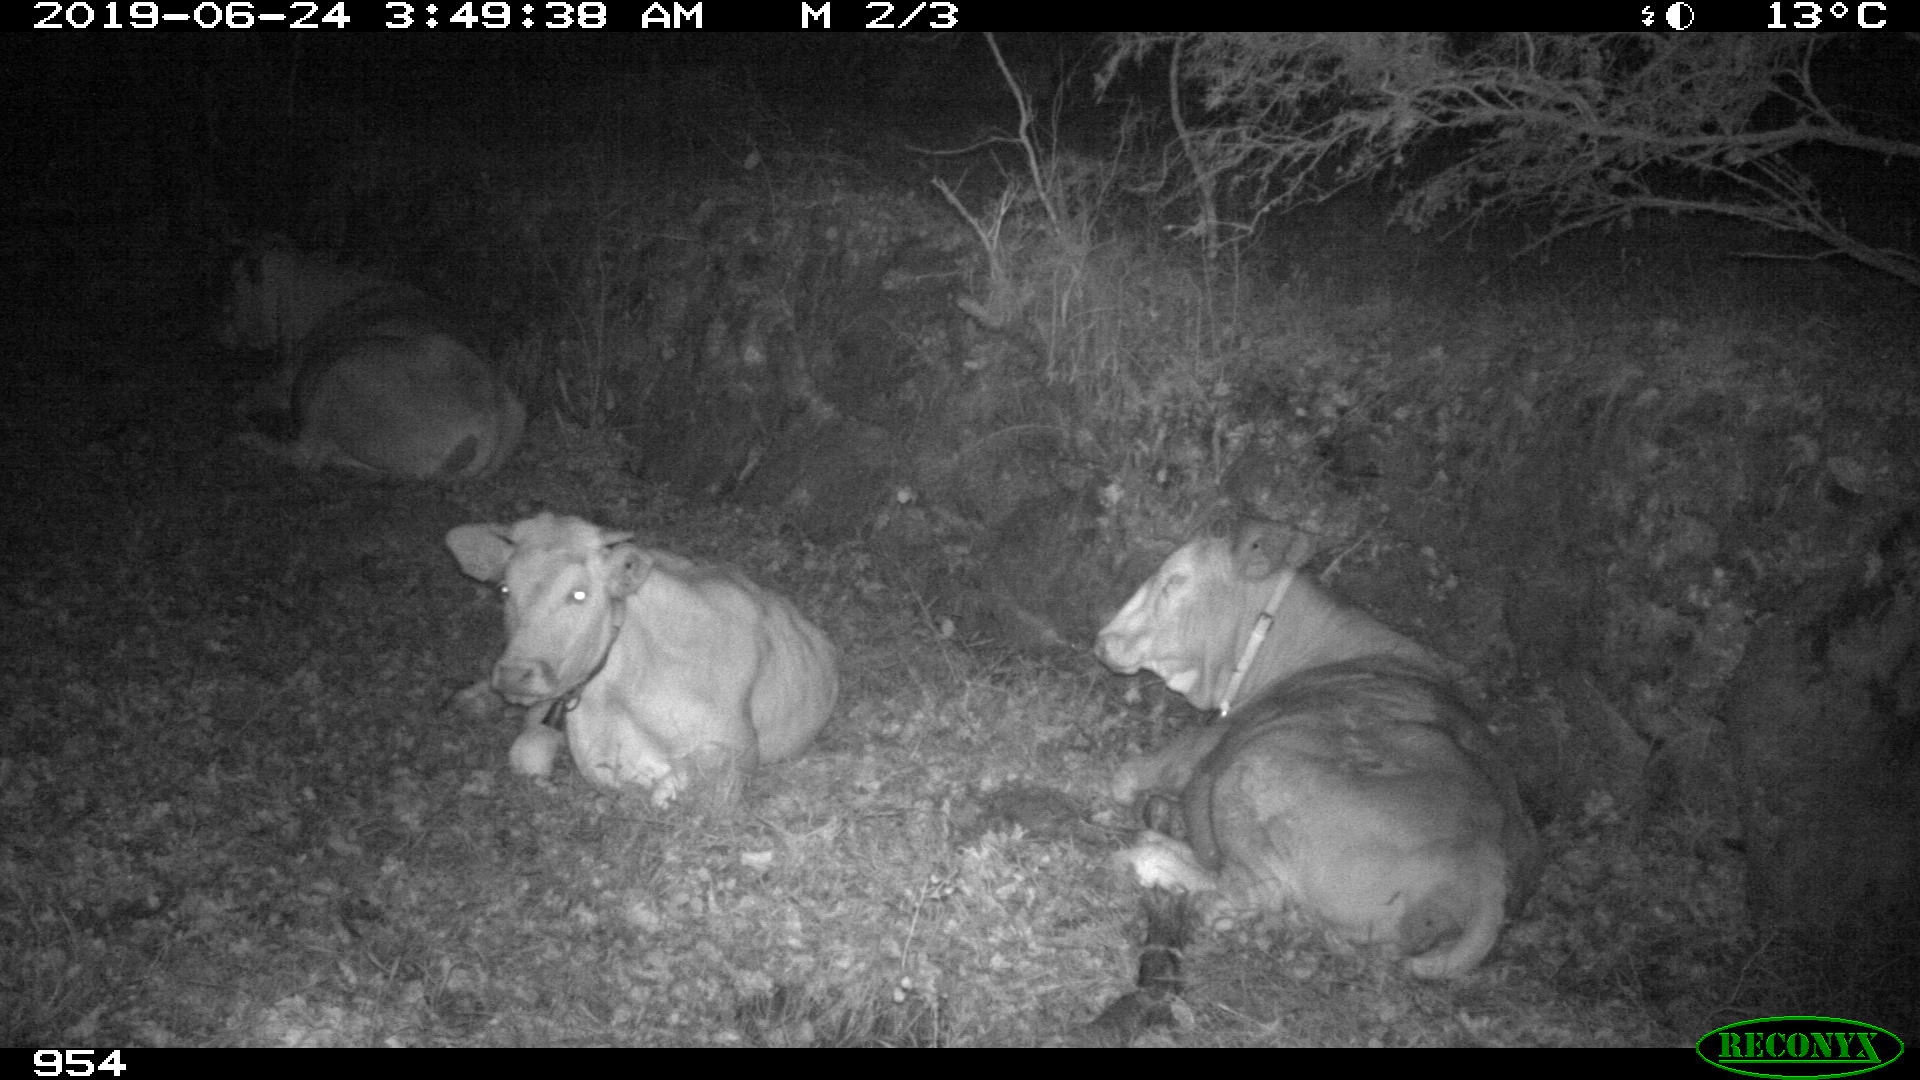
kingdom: Animalia
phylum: Chordata
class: Mammalia
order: Artiodactyla
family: Bovidae
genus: Bos
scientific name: Bos taurus
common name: Domesticated cattle
